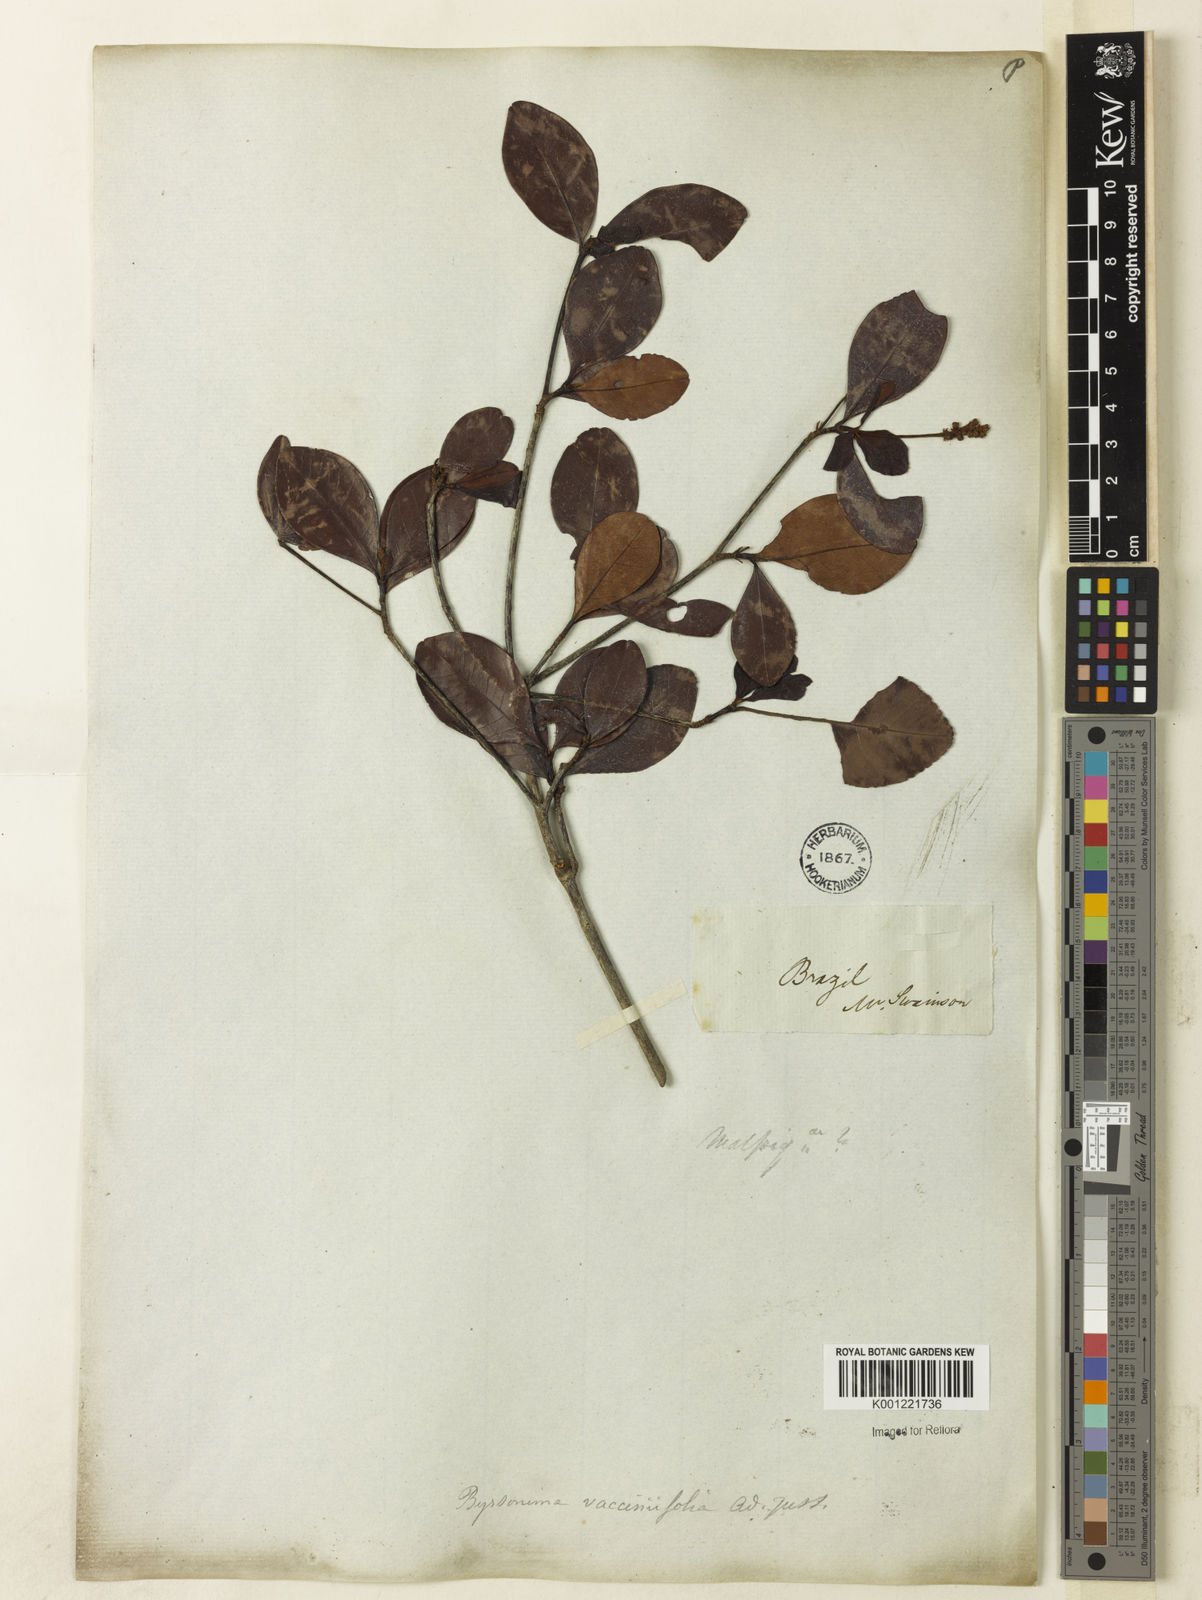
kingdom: Plantae
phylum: Tracheophyta
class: Magnoliopsida
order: Malpighiales
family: Malpighiaceae
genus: Byrsonima
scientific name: Byrsonima vacciniifolia
